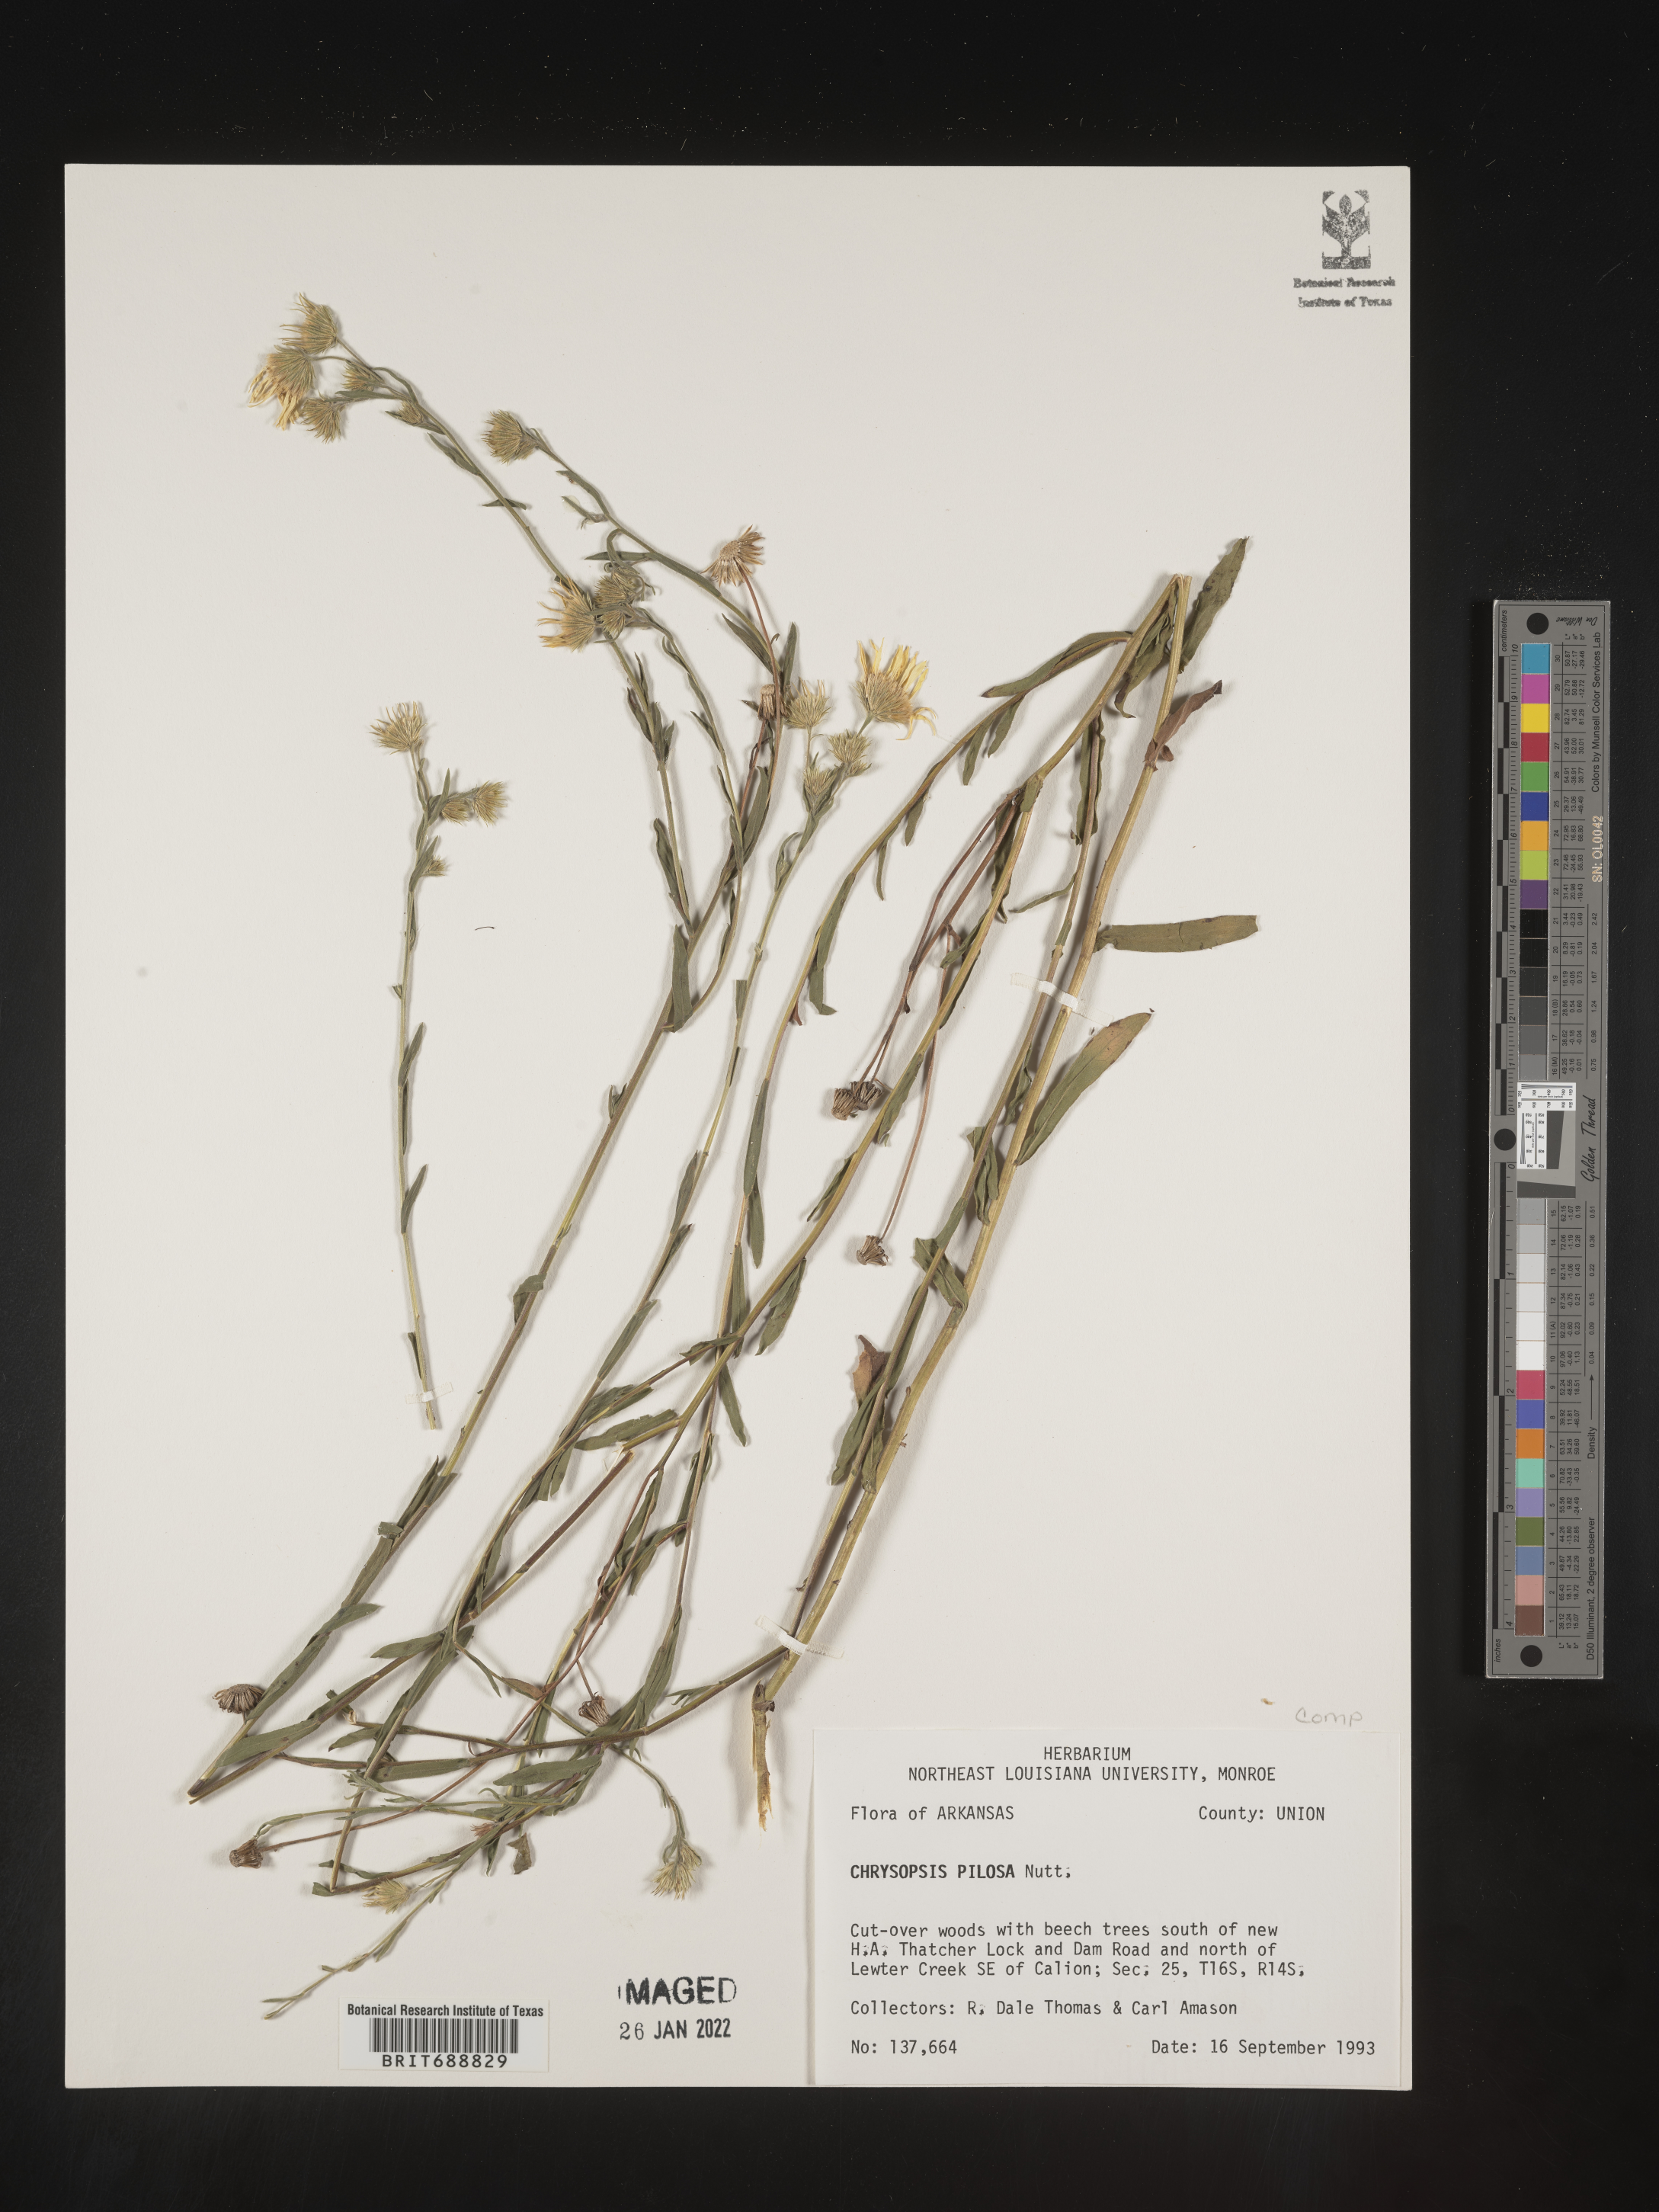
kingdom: Plantae
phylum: Tracheophyta
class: Magnoliopsida
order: Asterales
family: Asteraceae
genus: Bradburia
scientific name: Bradburia pilosa
